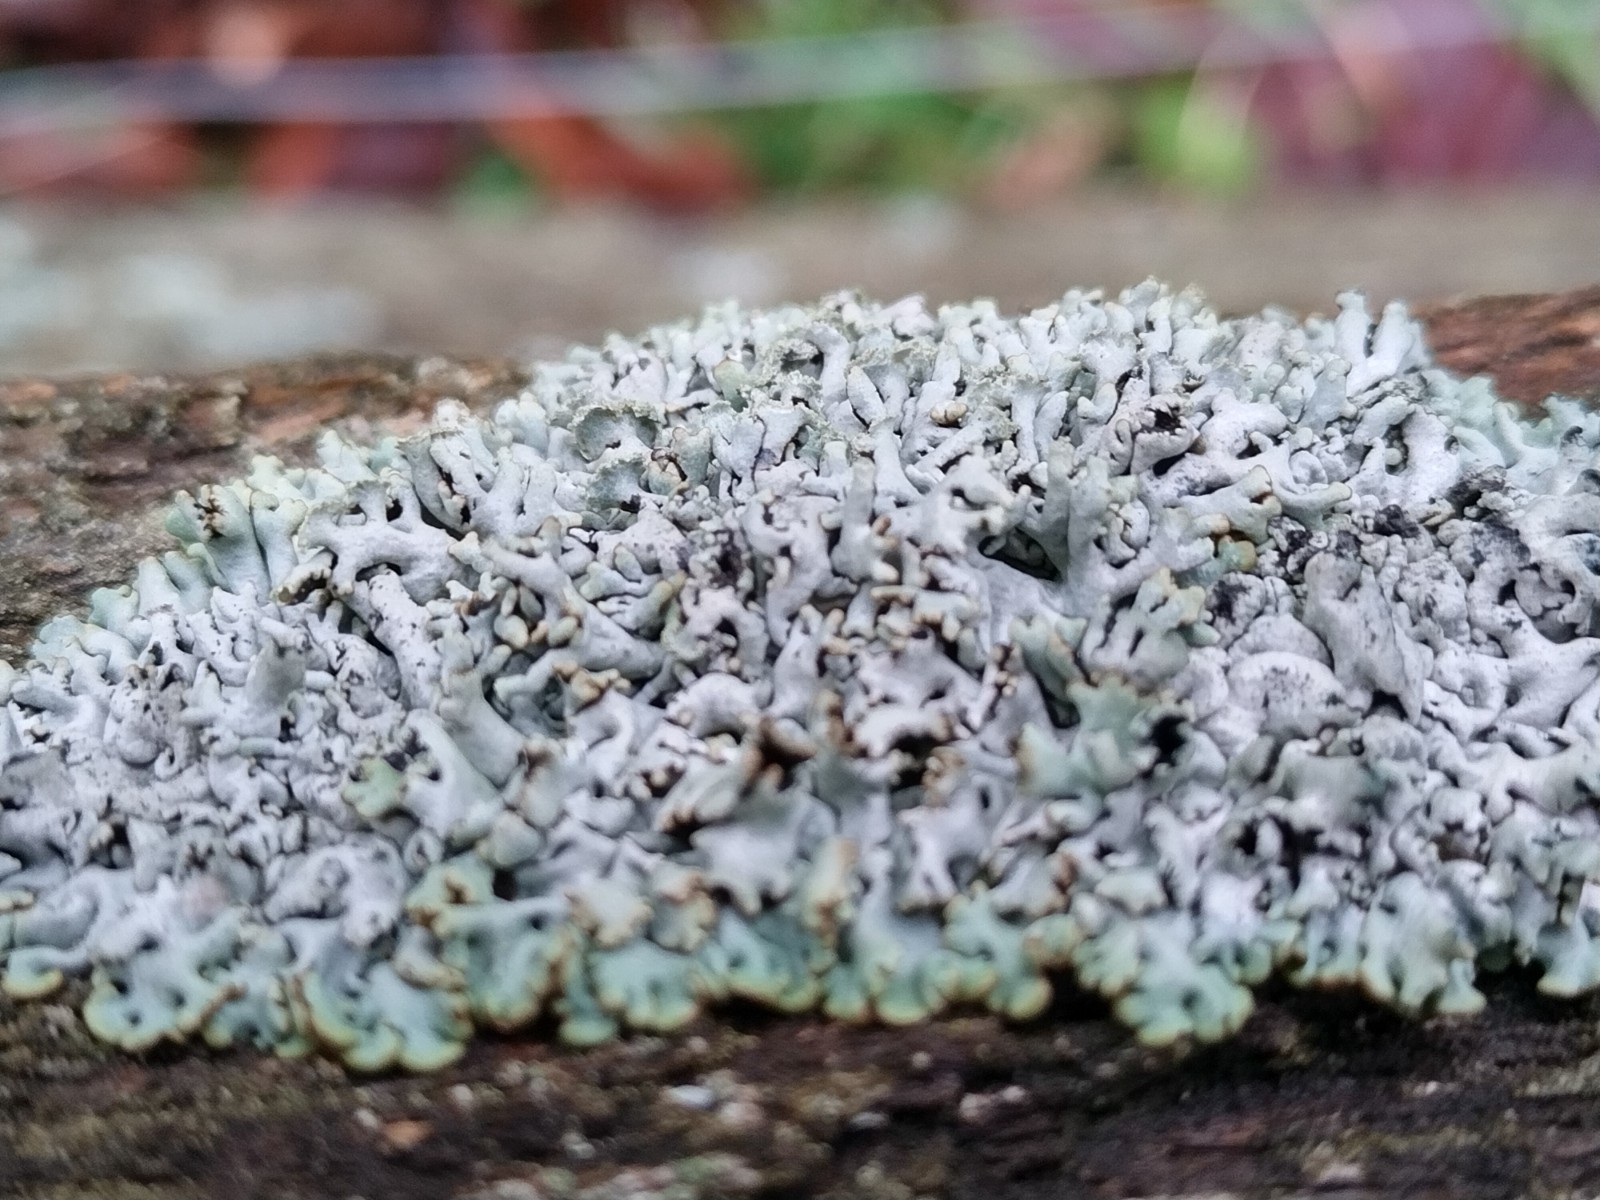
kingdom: Fungi
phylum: Ascomycota
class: Lecanoromycetes
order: Lecanorales
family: Parmeliaceae
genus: Hypogymnia
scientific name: Hypogymnia physodes
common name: almindelig kvistlav
